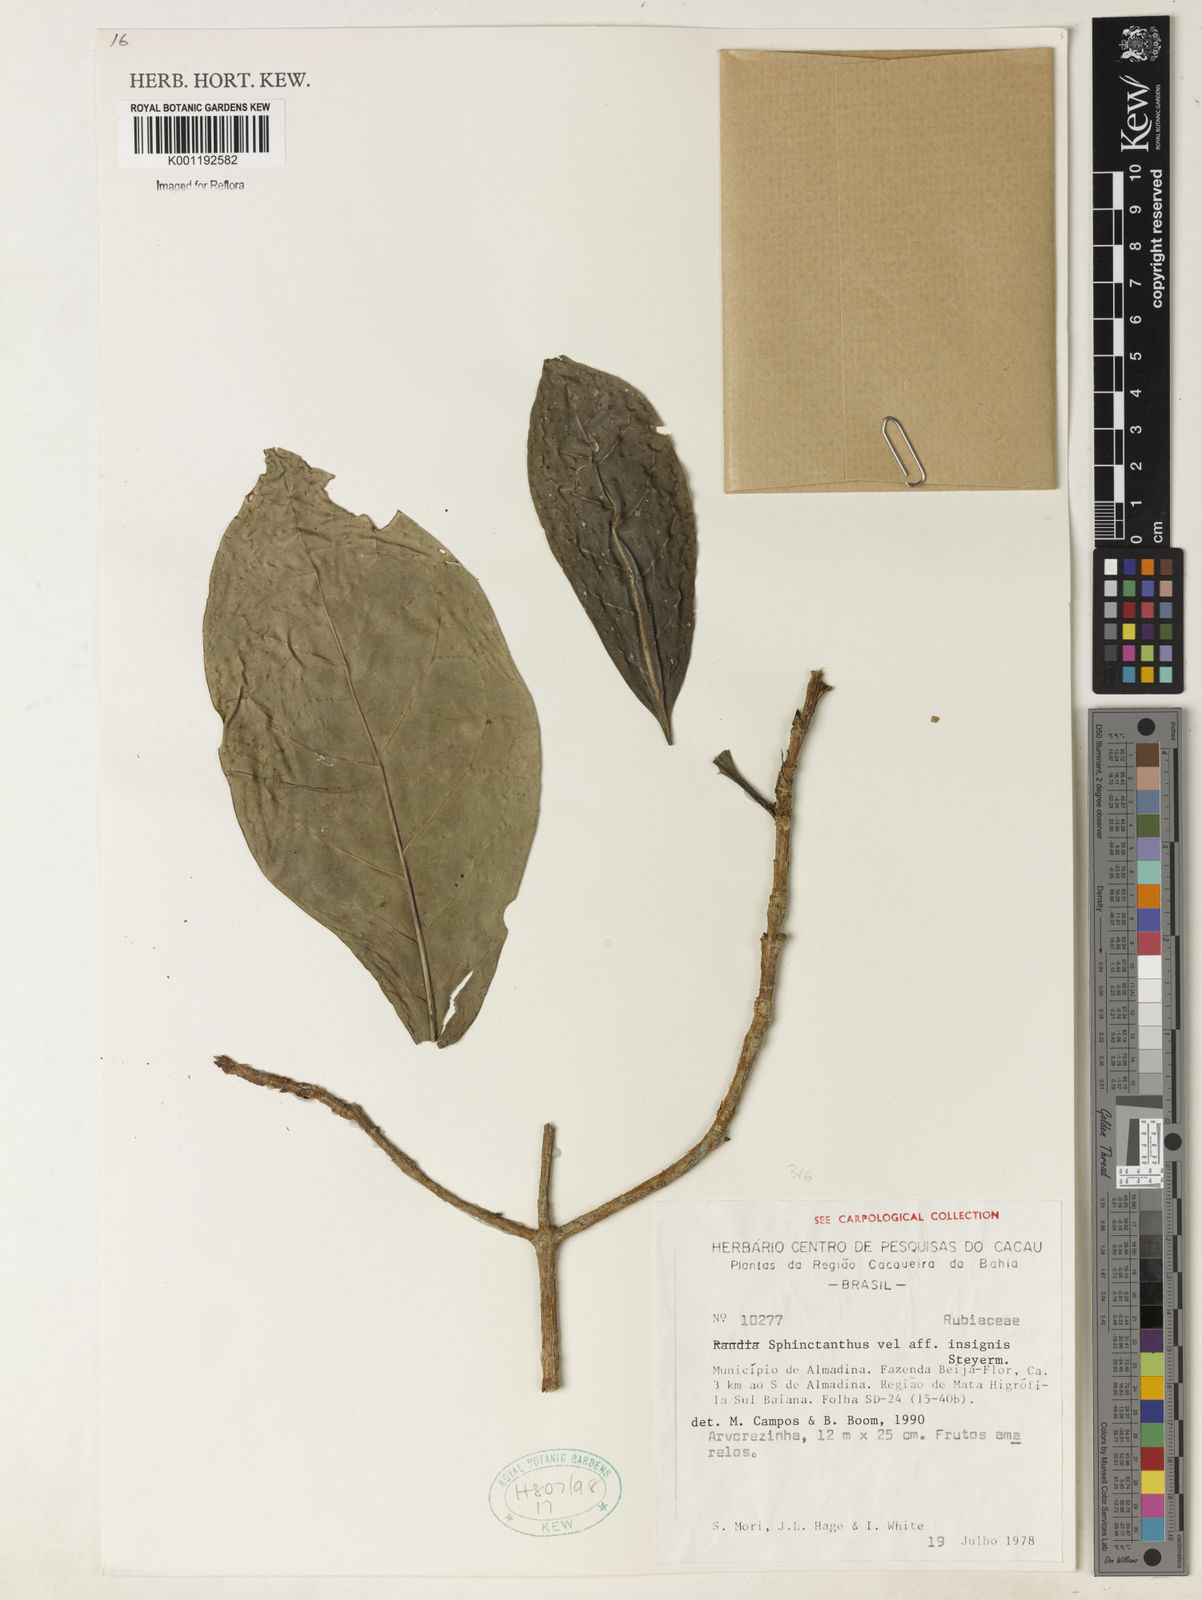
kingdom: Plantae
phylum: Tracheophyta
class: Magnoliopsida
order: Gentianales
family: Rubiaceae
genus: Sphinctanthus
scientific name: Sphinctanthus insignis
